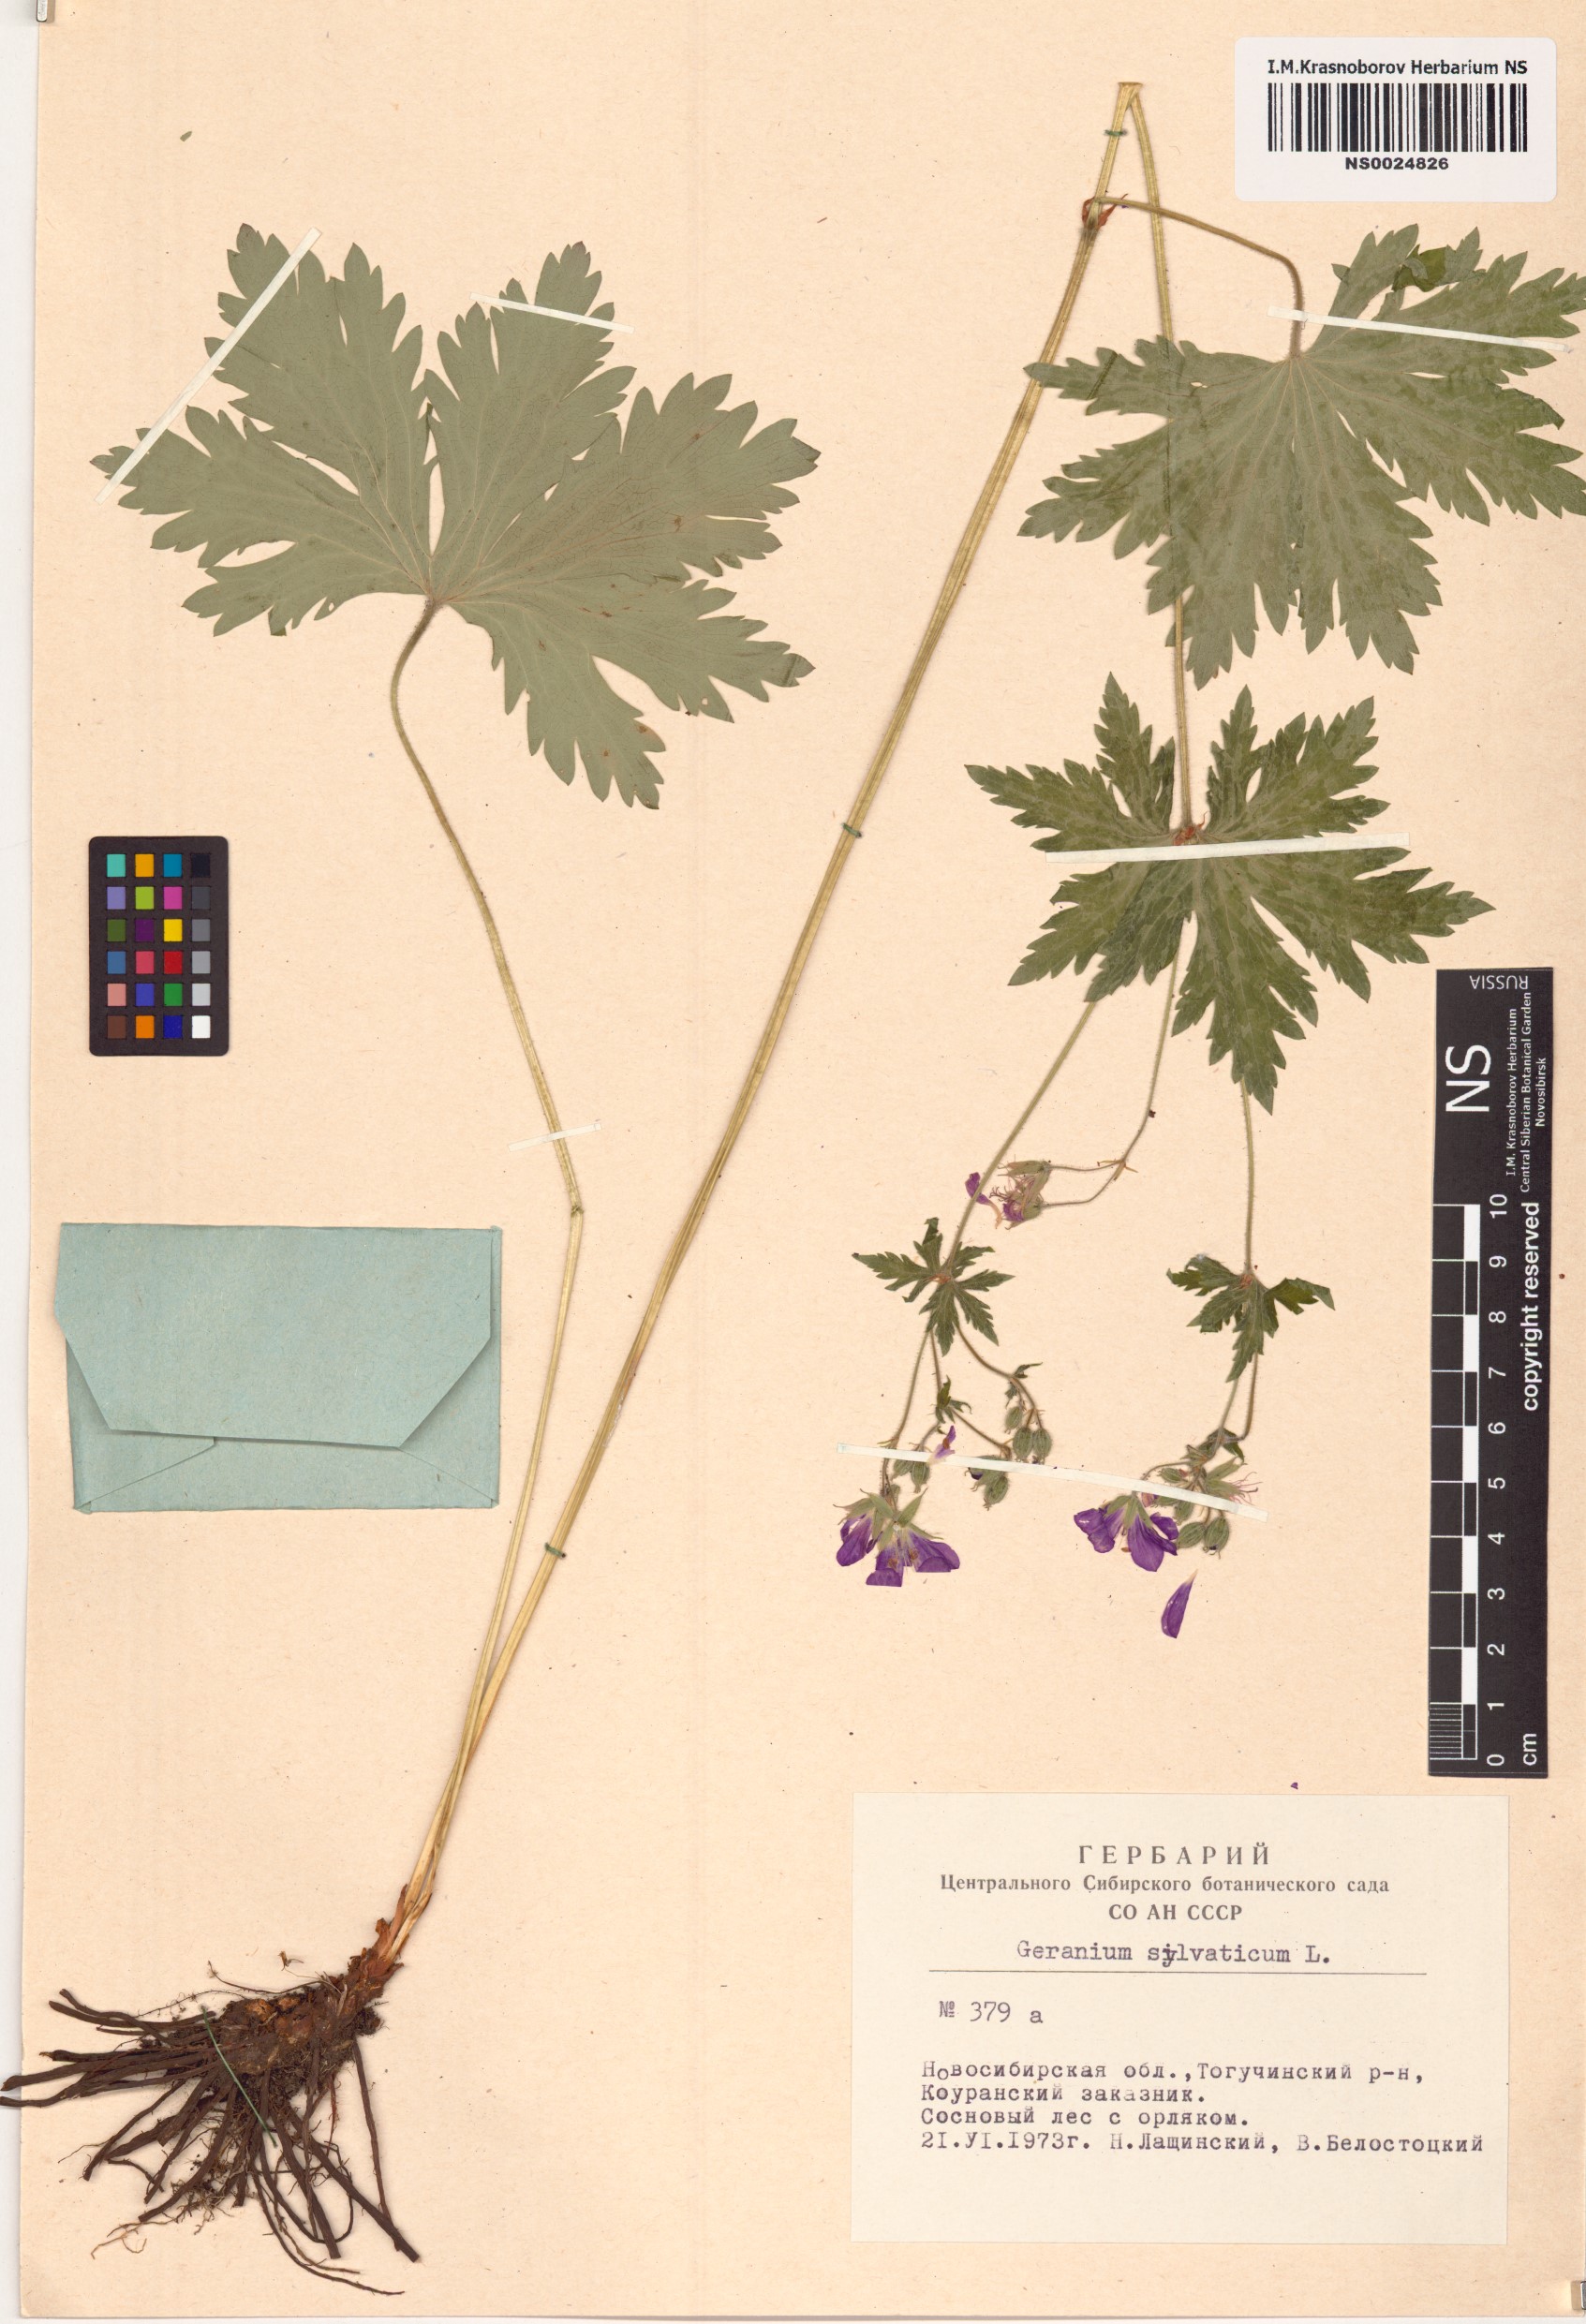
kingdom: Plantae
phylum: Tracheophyta
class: Magnoliopsida
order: Geraniales
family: Geraniaceae
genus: Geranium
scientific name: Geranium sylvaticum
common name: Wood crane's-bill
